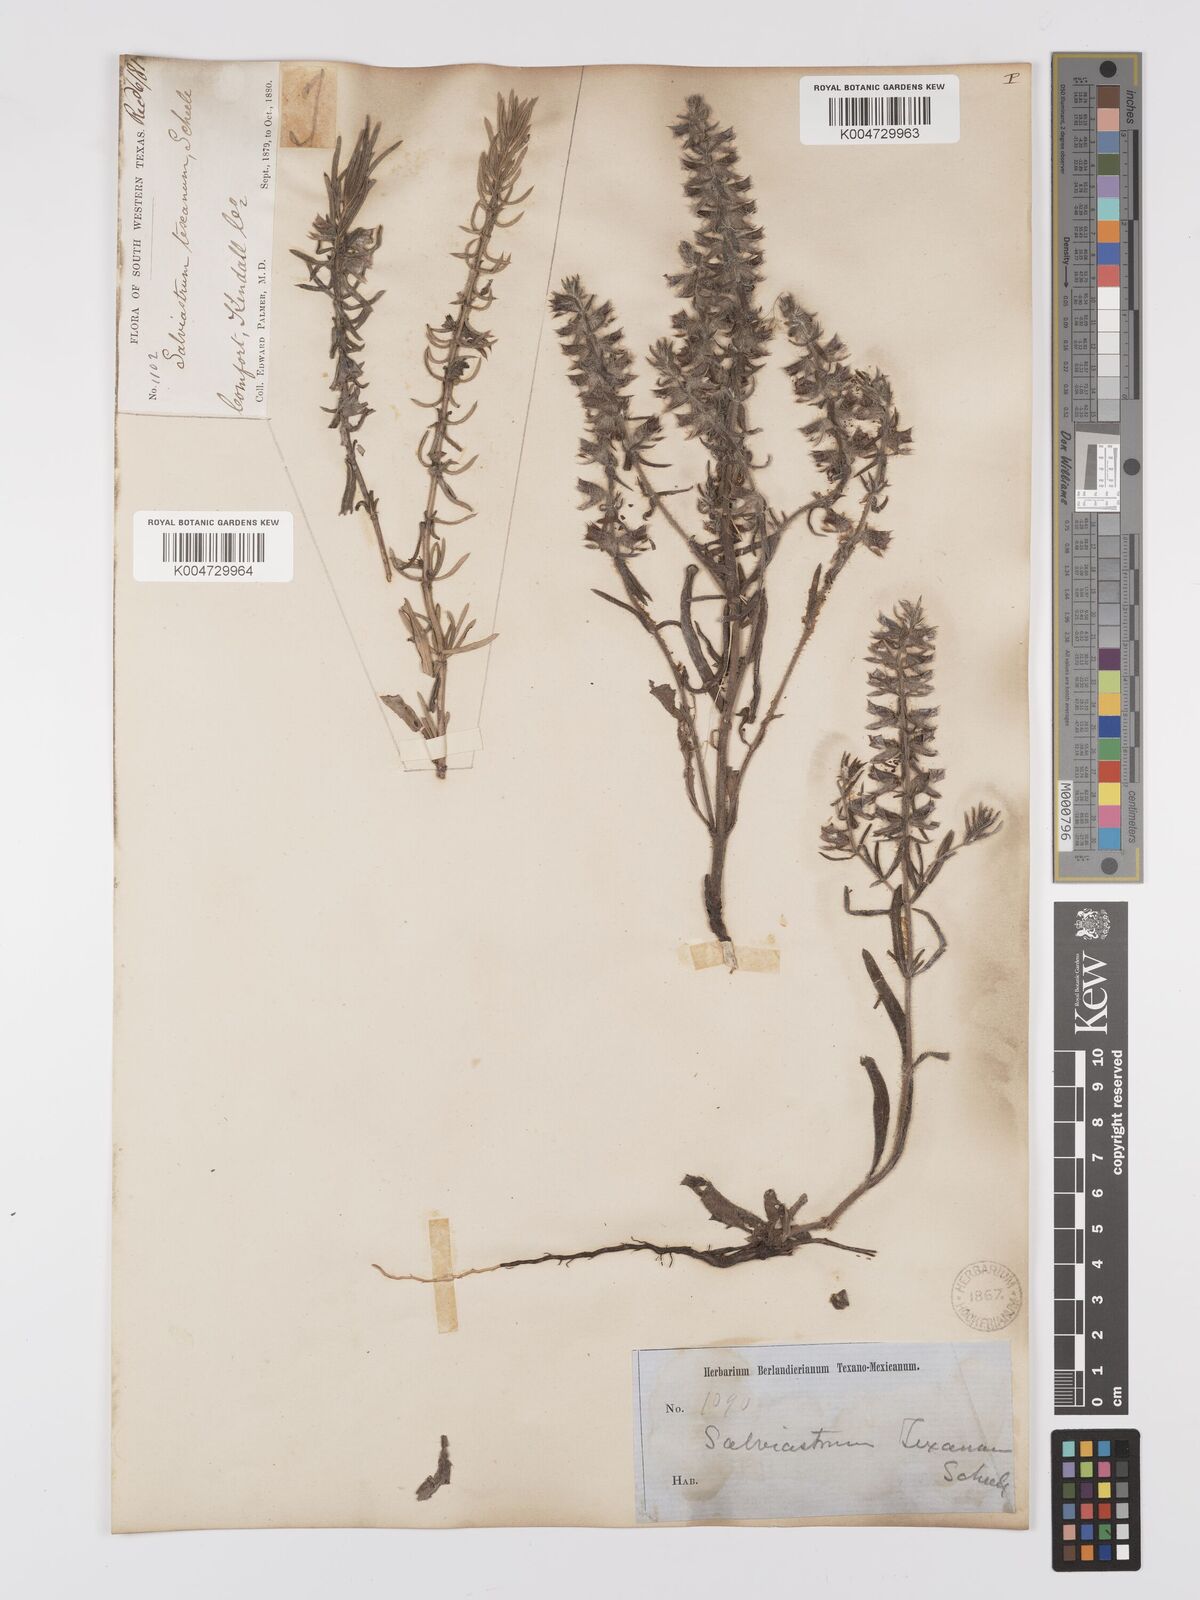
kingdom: Plantae
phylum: Tracheophyta
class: Magnoliopsida
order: Lamiales
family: Lamiaceae
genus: Salvia
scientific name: Salvia texana
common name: Texas sage
